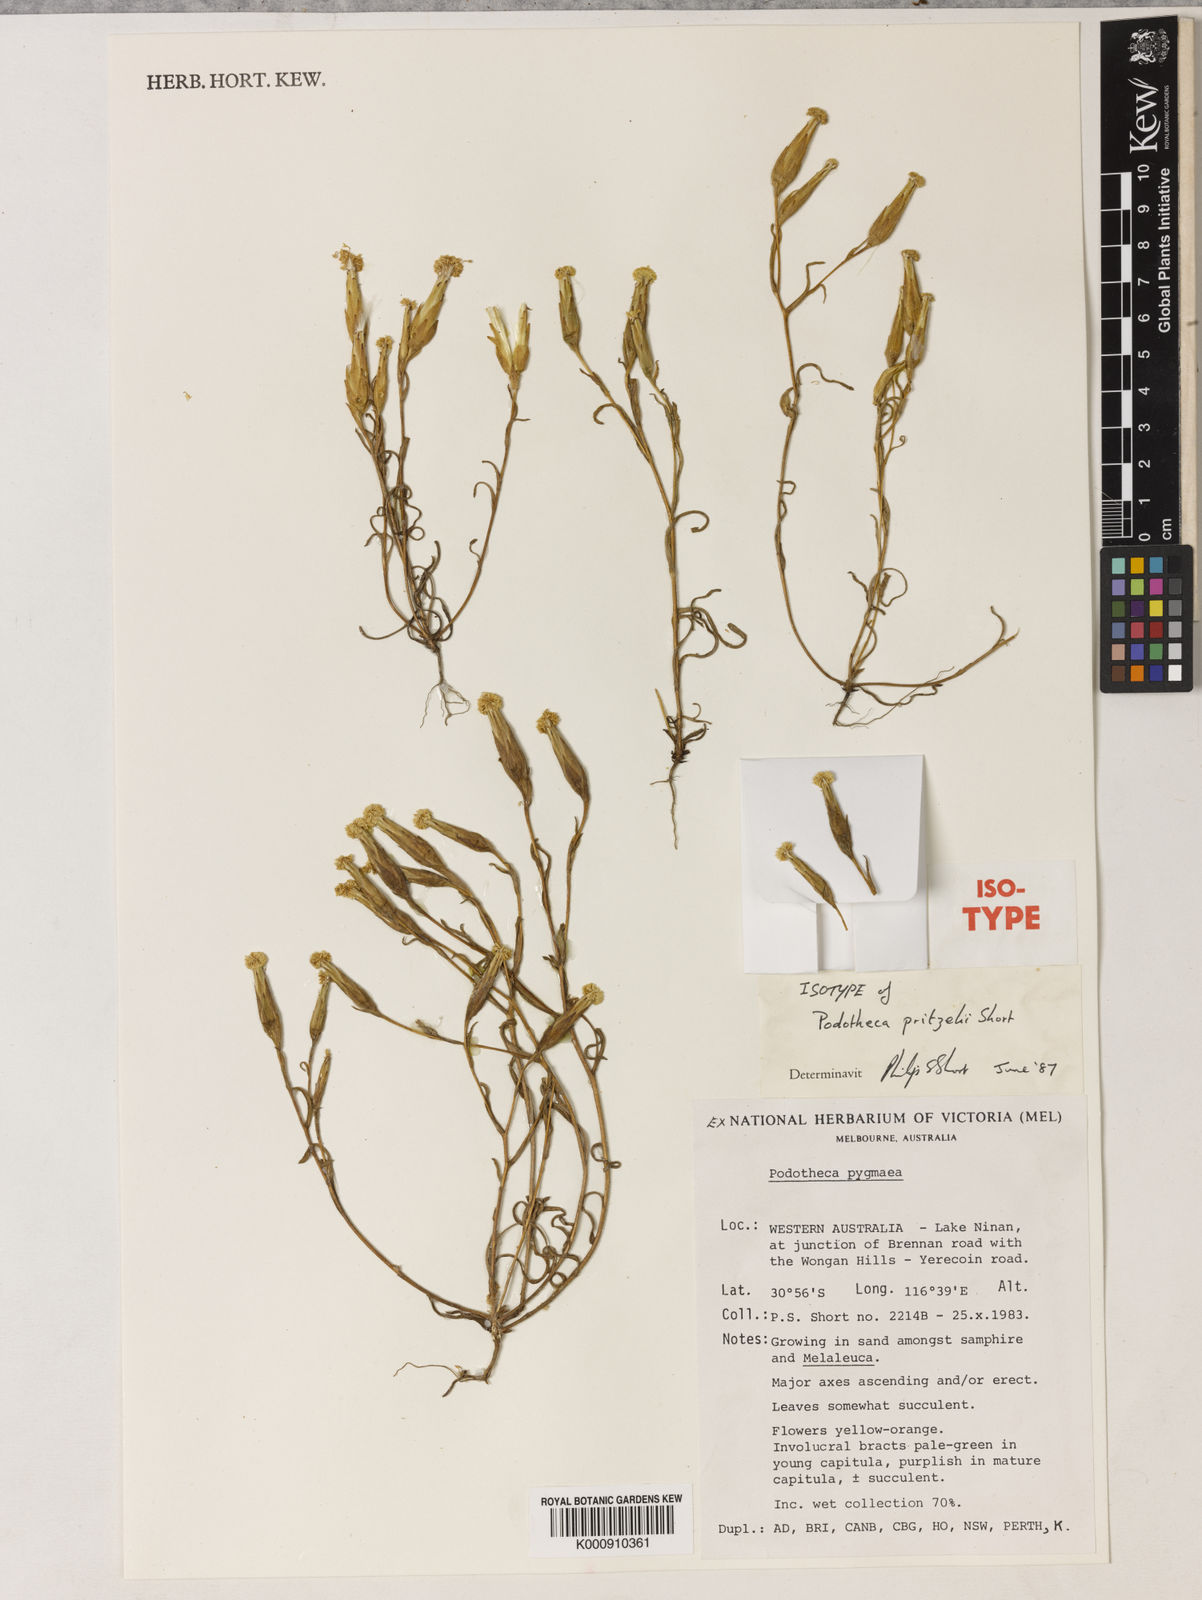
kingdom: Plantae
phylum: Tracheophyta
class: Magnoliopsida
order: Asterales
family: Asteraceae
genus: Podotheca
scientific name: Podotheca pritzelii
